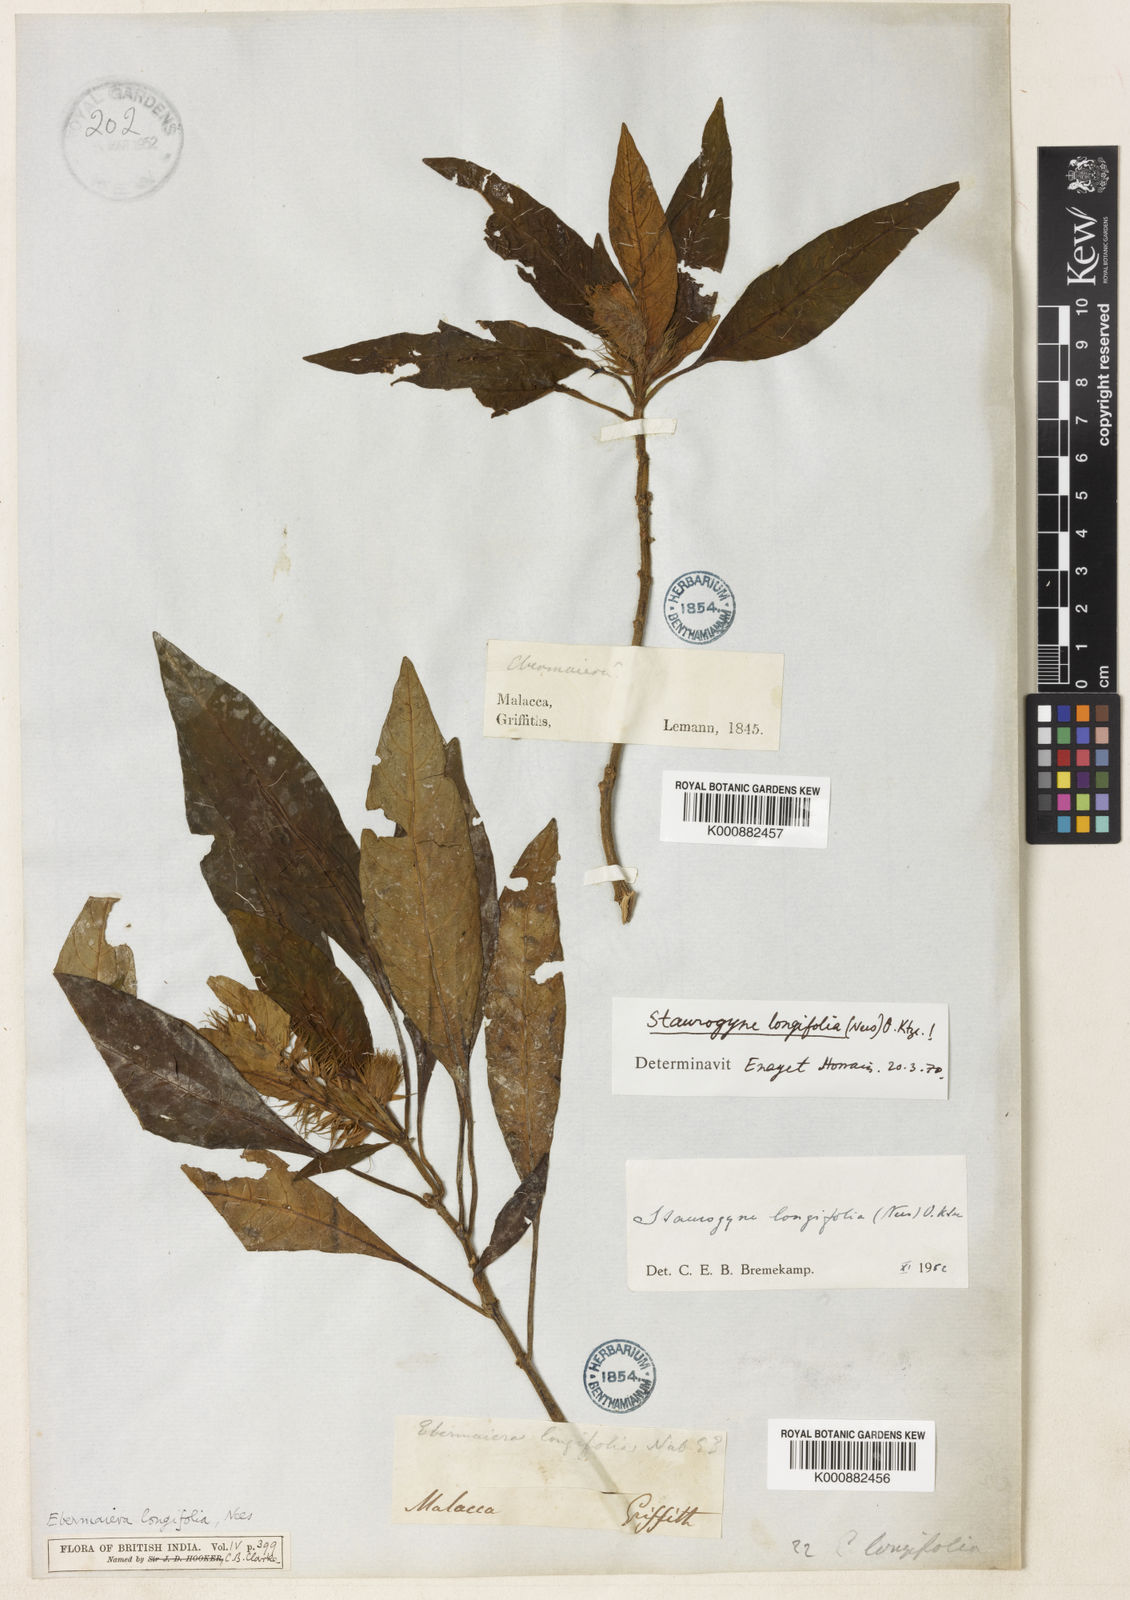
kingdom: Plantae
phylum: Tracheophyta
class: Magnoliopsida
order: Lamiales
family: Acanthaceae
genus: Staurogyne
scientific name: Staurogyne longifolia
